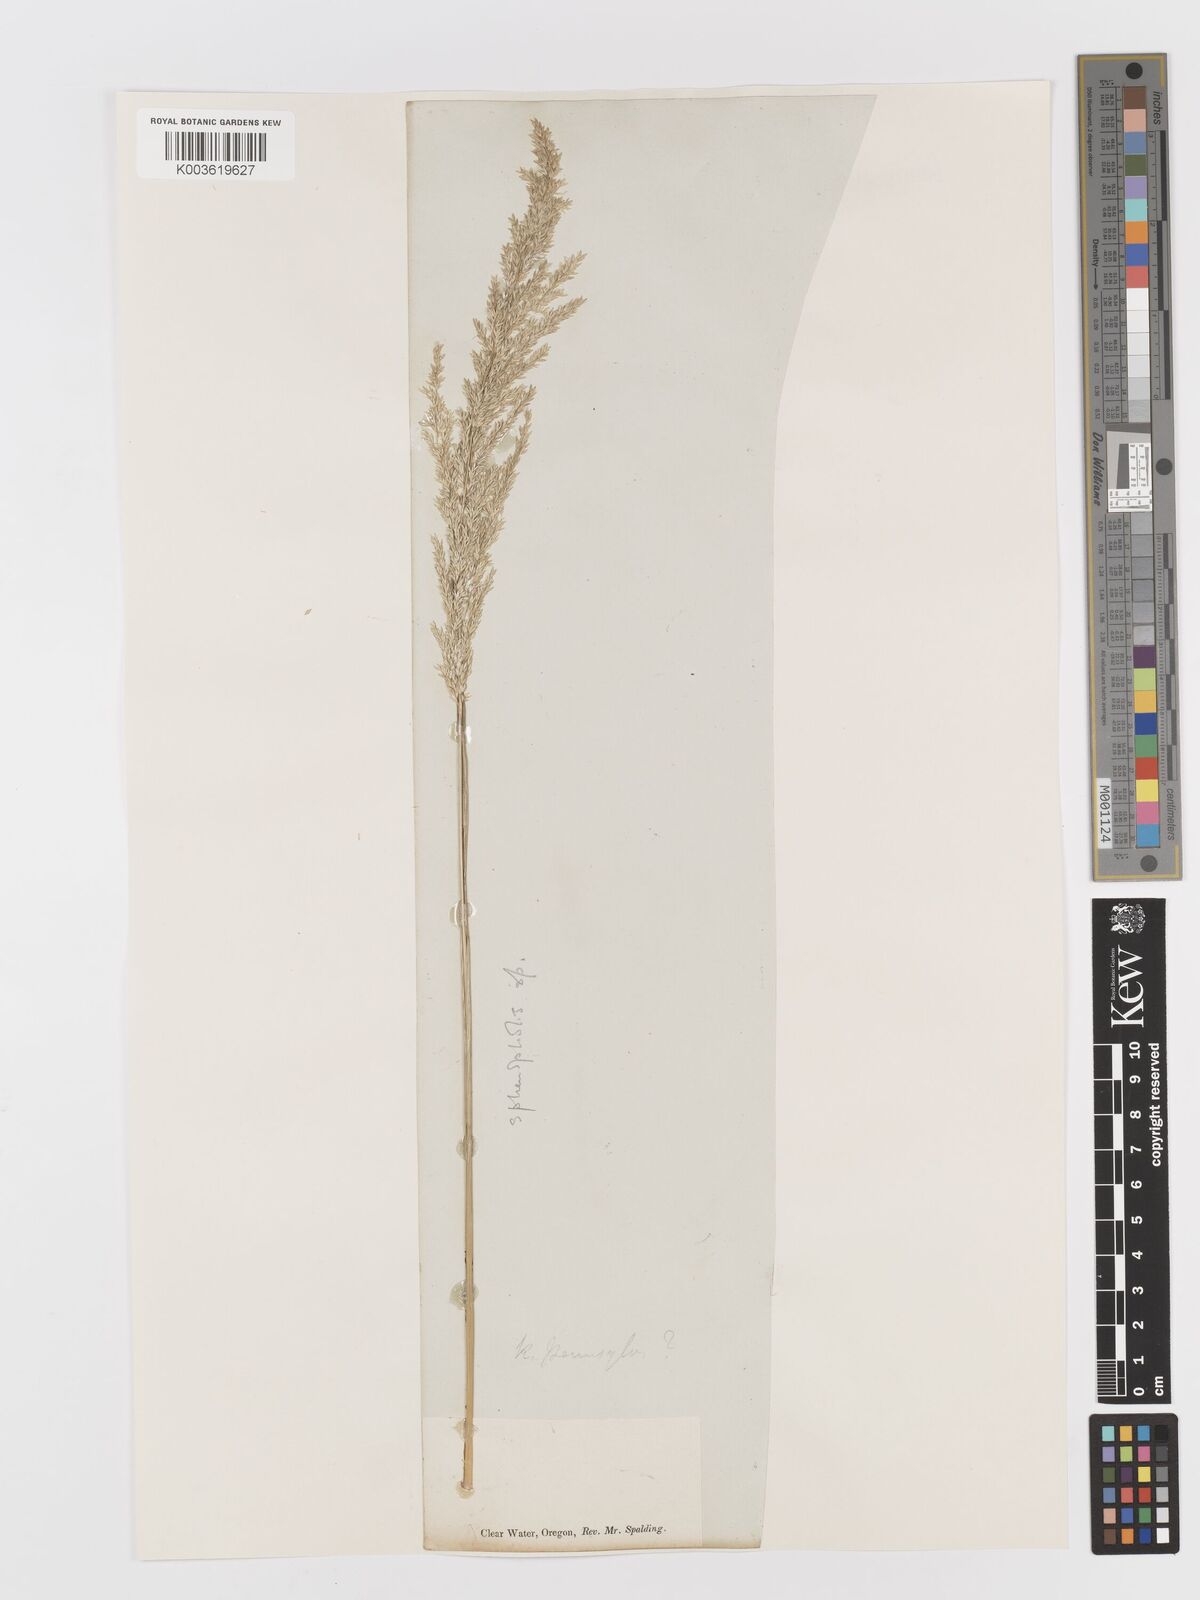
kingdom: Plantae
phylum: Tracheophyta
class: Liliopsida
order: Poales
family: Poaceae
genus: Sphenopholis
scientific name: Sphenopholis obtusata
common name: Prairie grass
